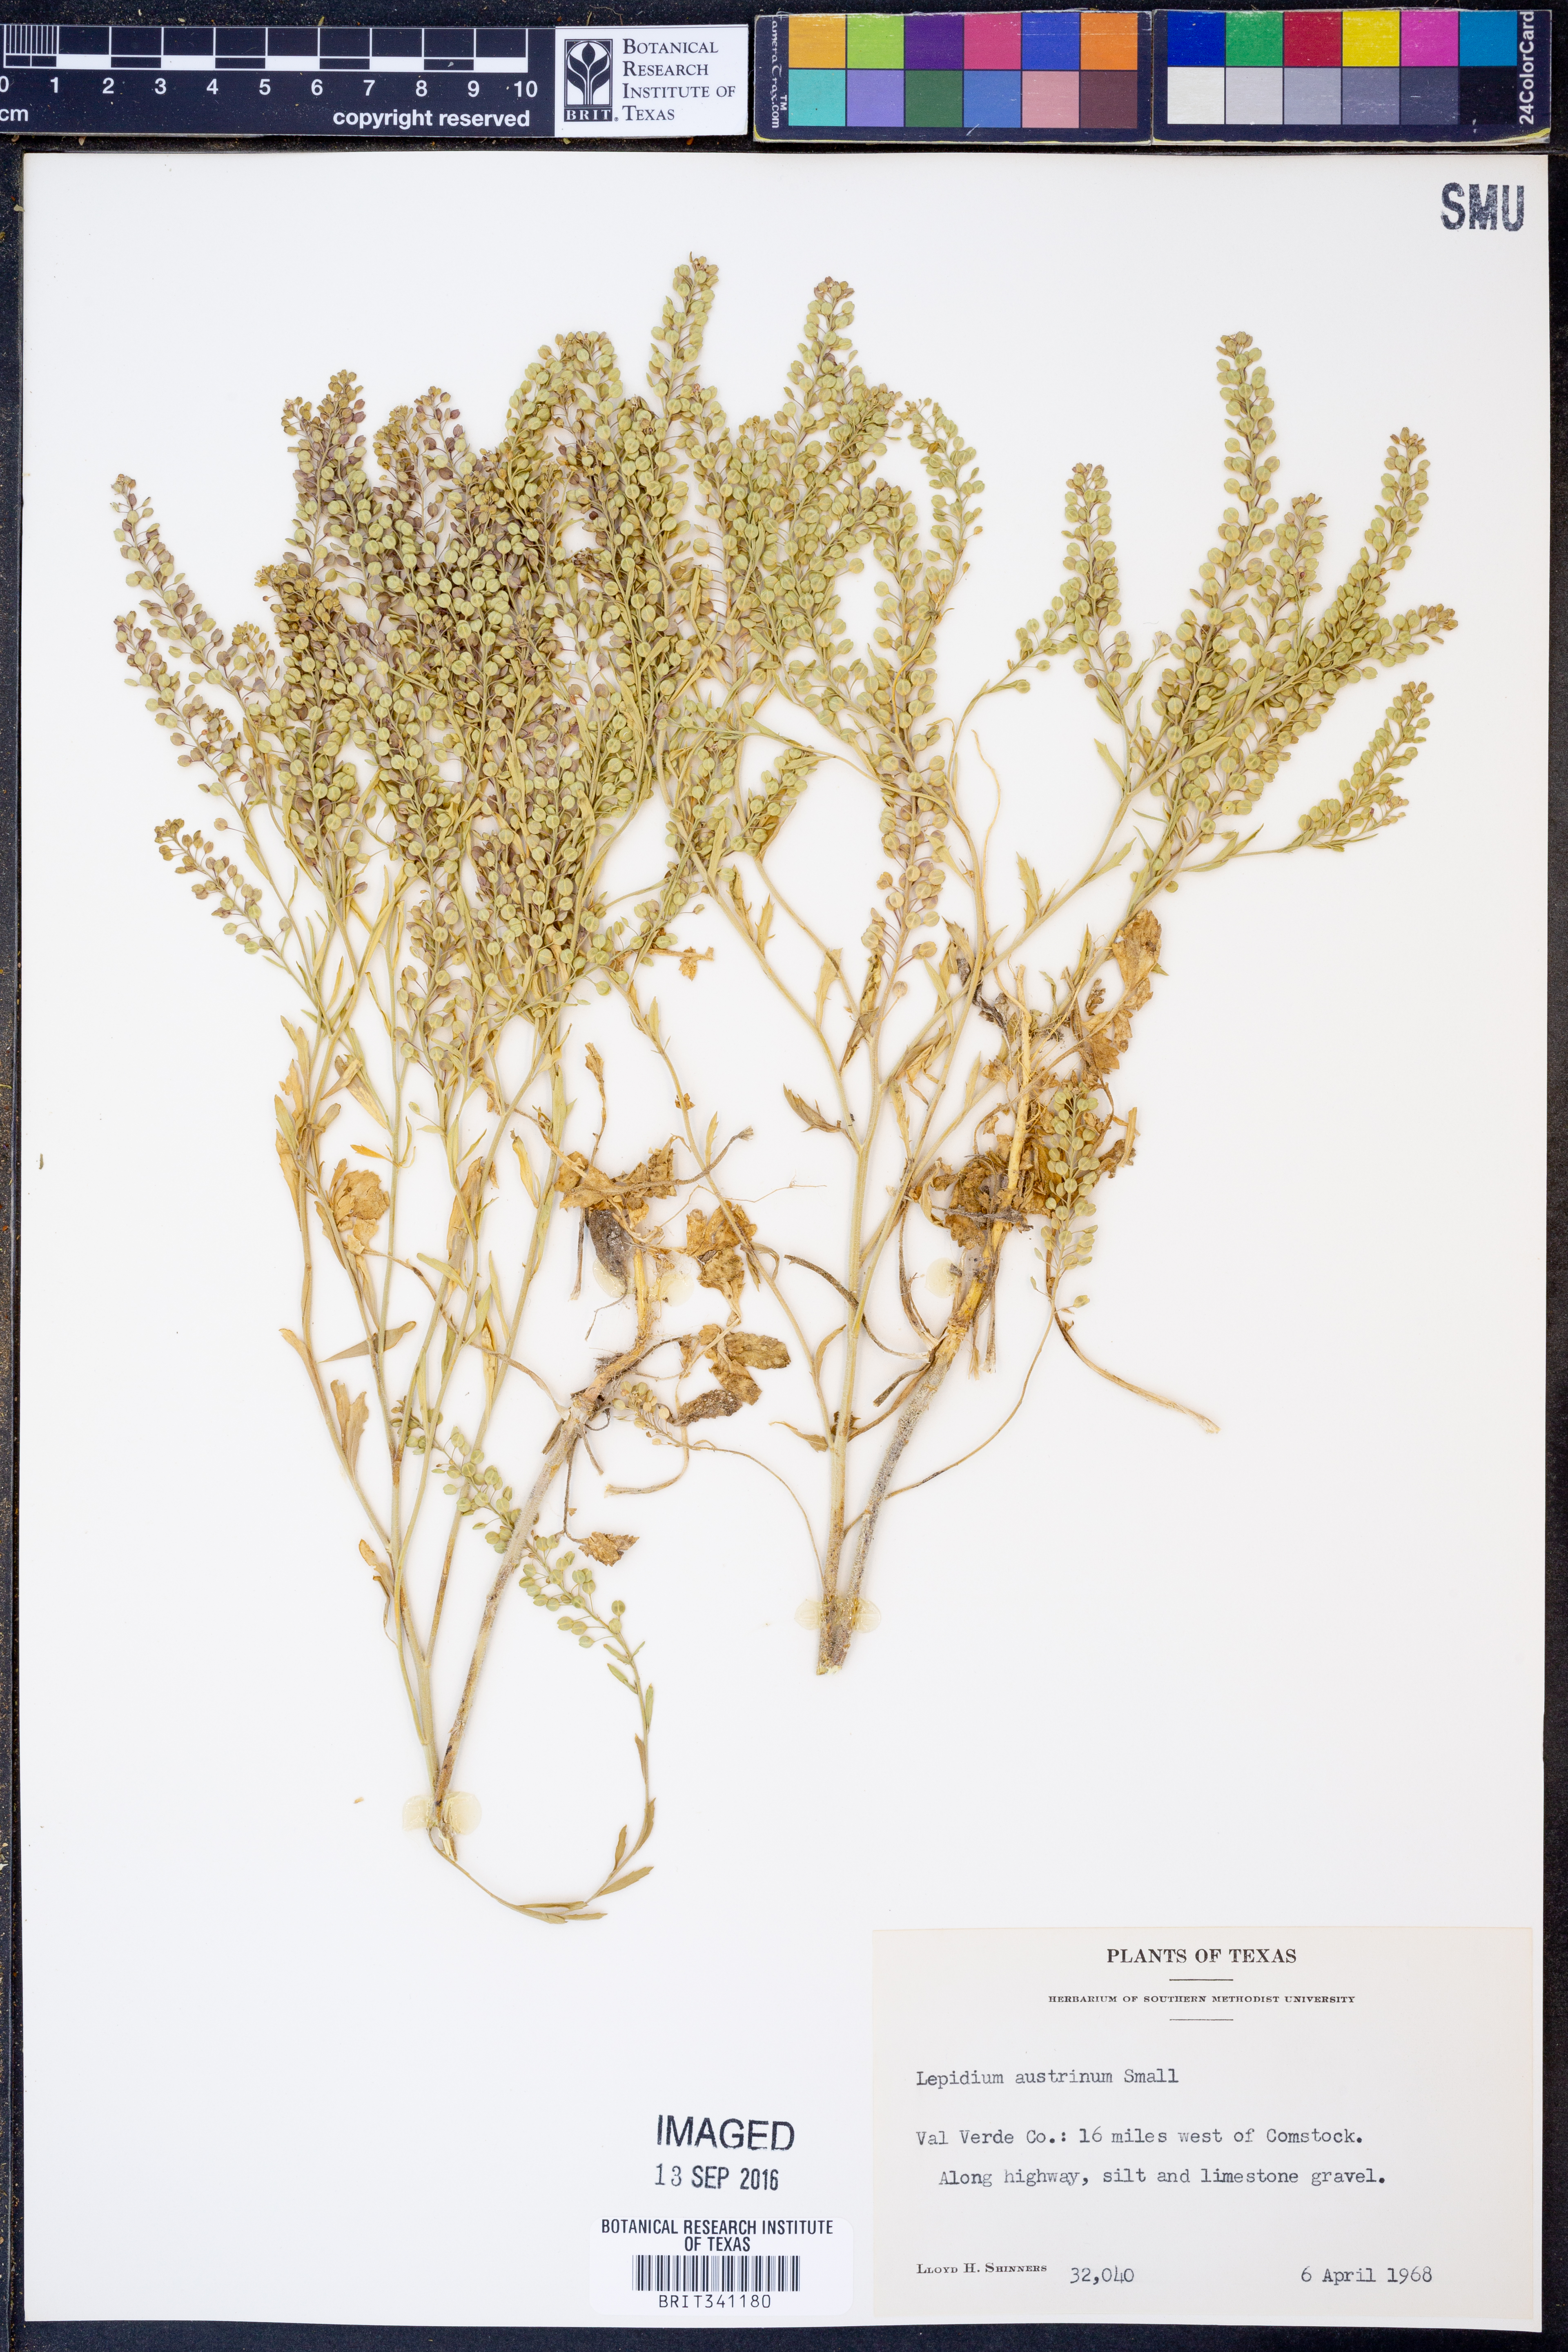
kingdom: Plantae
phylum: Tracheophyta
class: Magnoliopsida
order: Brassicales
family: Brassicaceae
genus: Lepidium
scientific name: Lepidium austrinum
